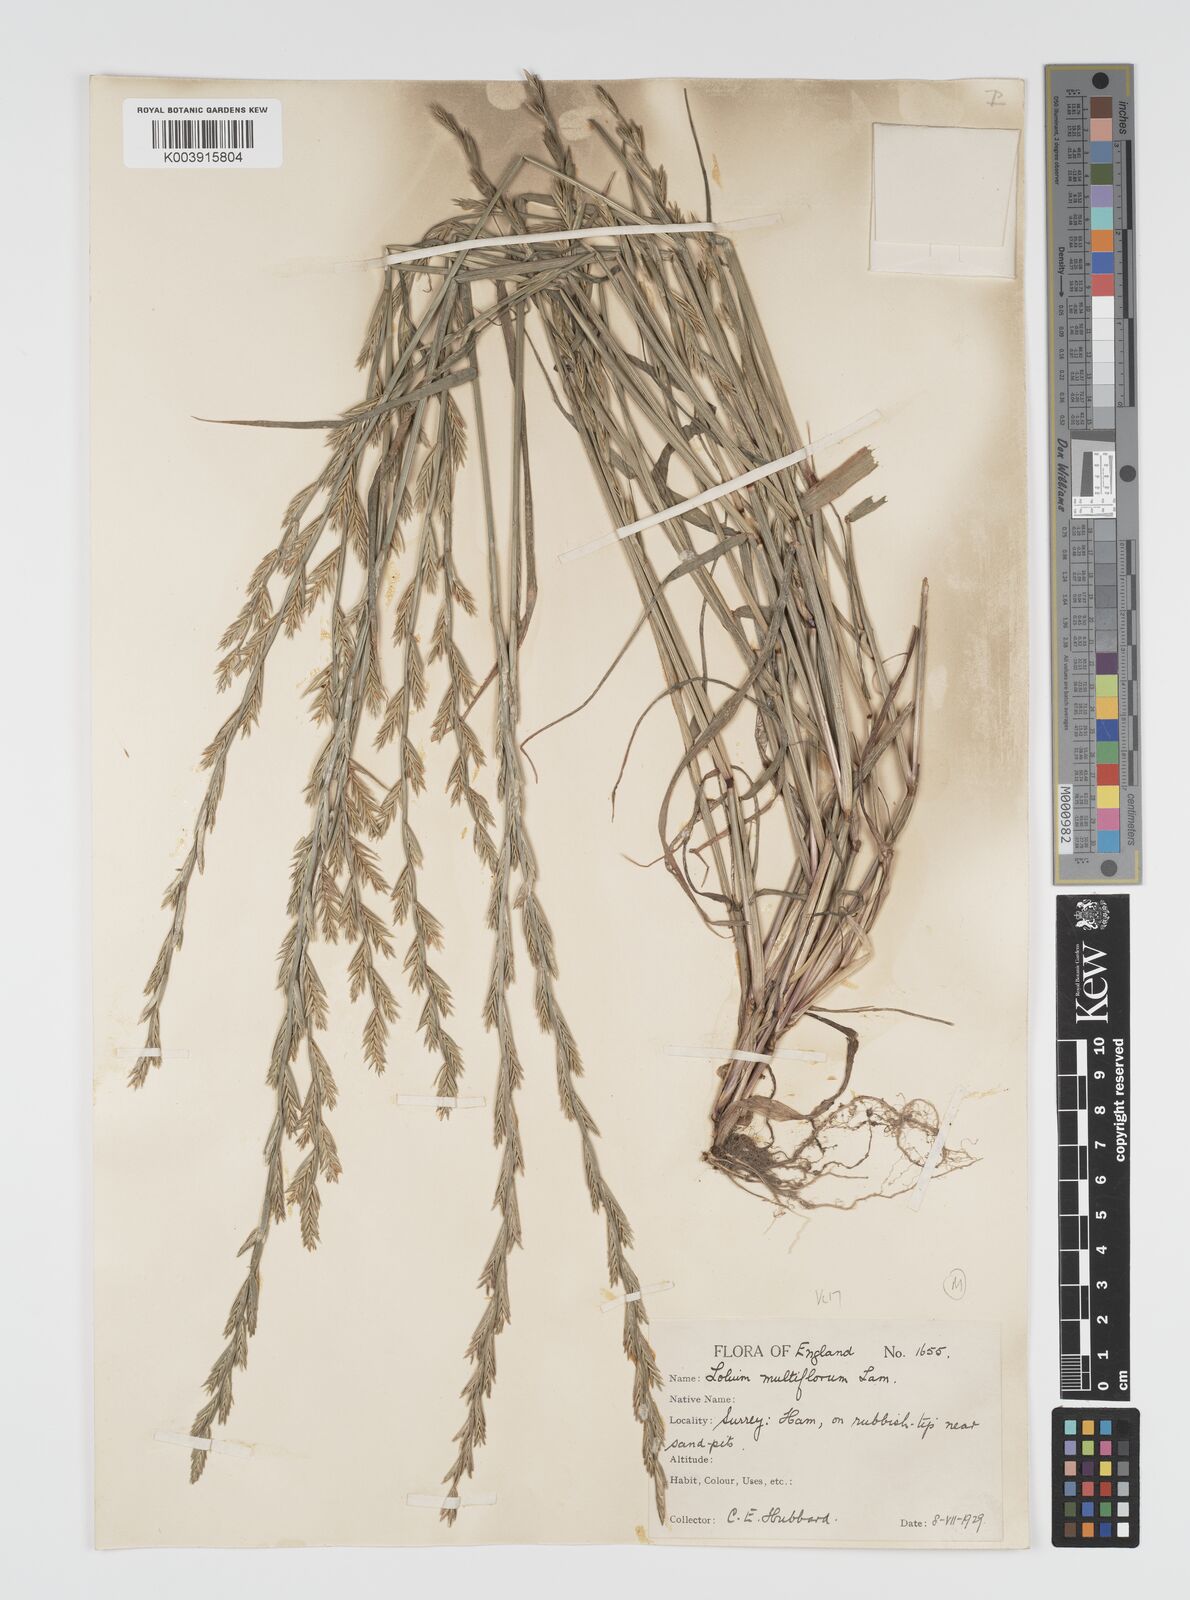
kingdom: Plantae
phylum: Tracheophyta
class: Liliopsida
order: Poales
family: Poaceae
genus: Lolium
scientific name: Lolium multiflorum
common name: Annual ryegrass
